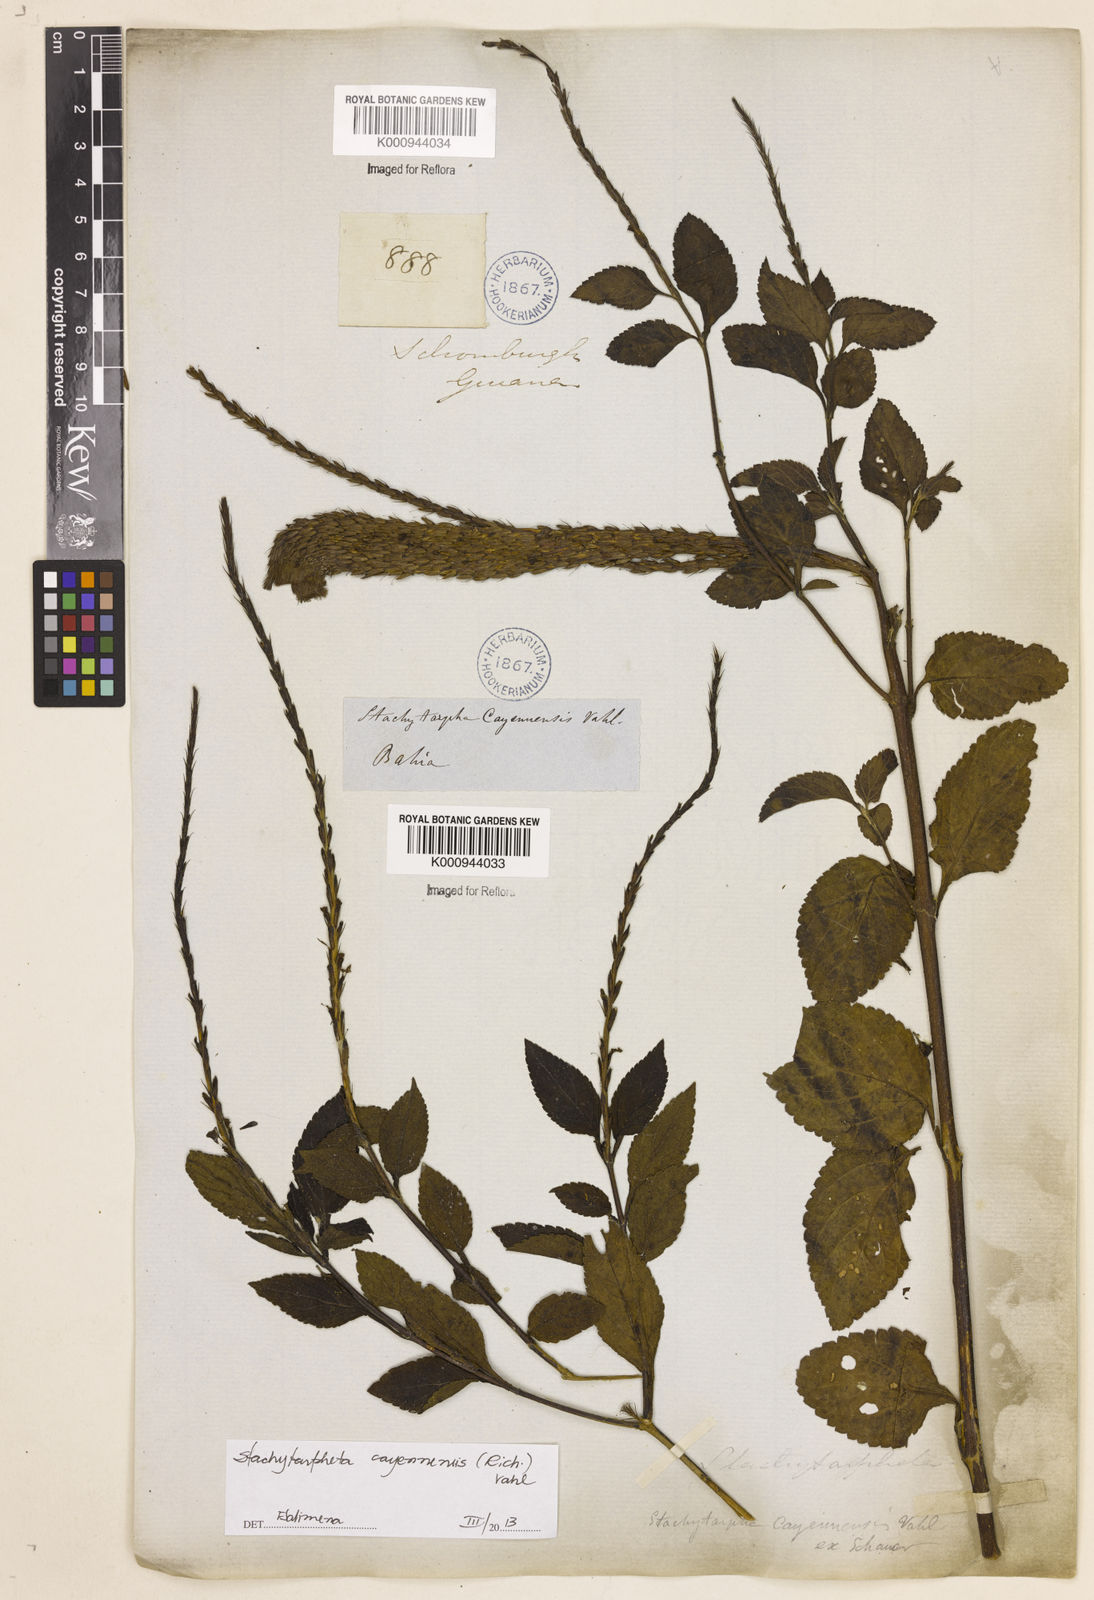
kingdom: Plantae
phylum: Tracheophyta
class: Magnoliopsida
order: Lamiales
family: Verbenaceae
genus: Aloysia
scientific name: Aloysia
